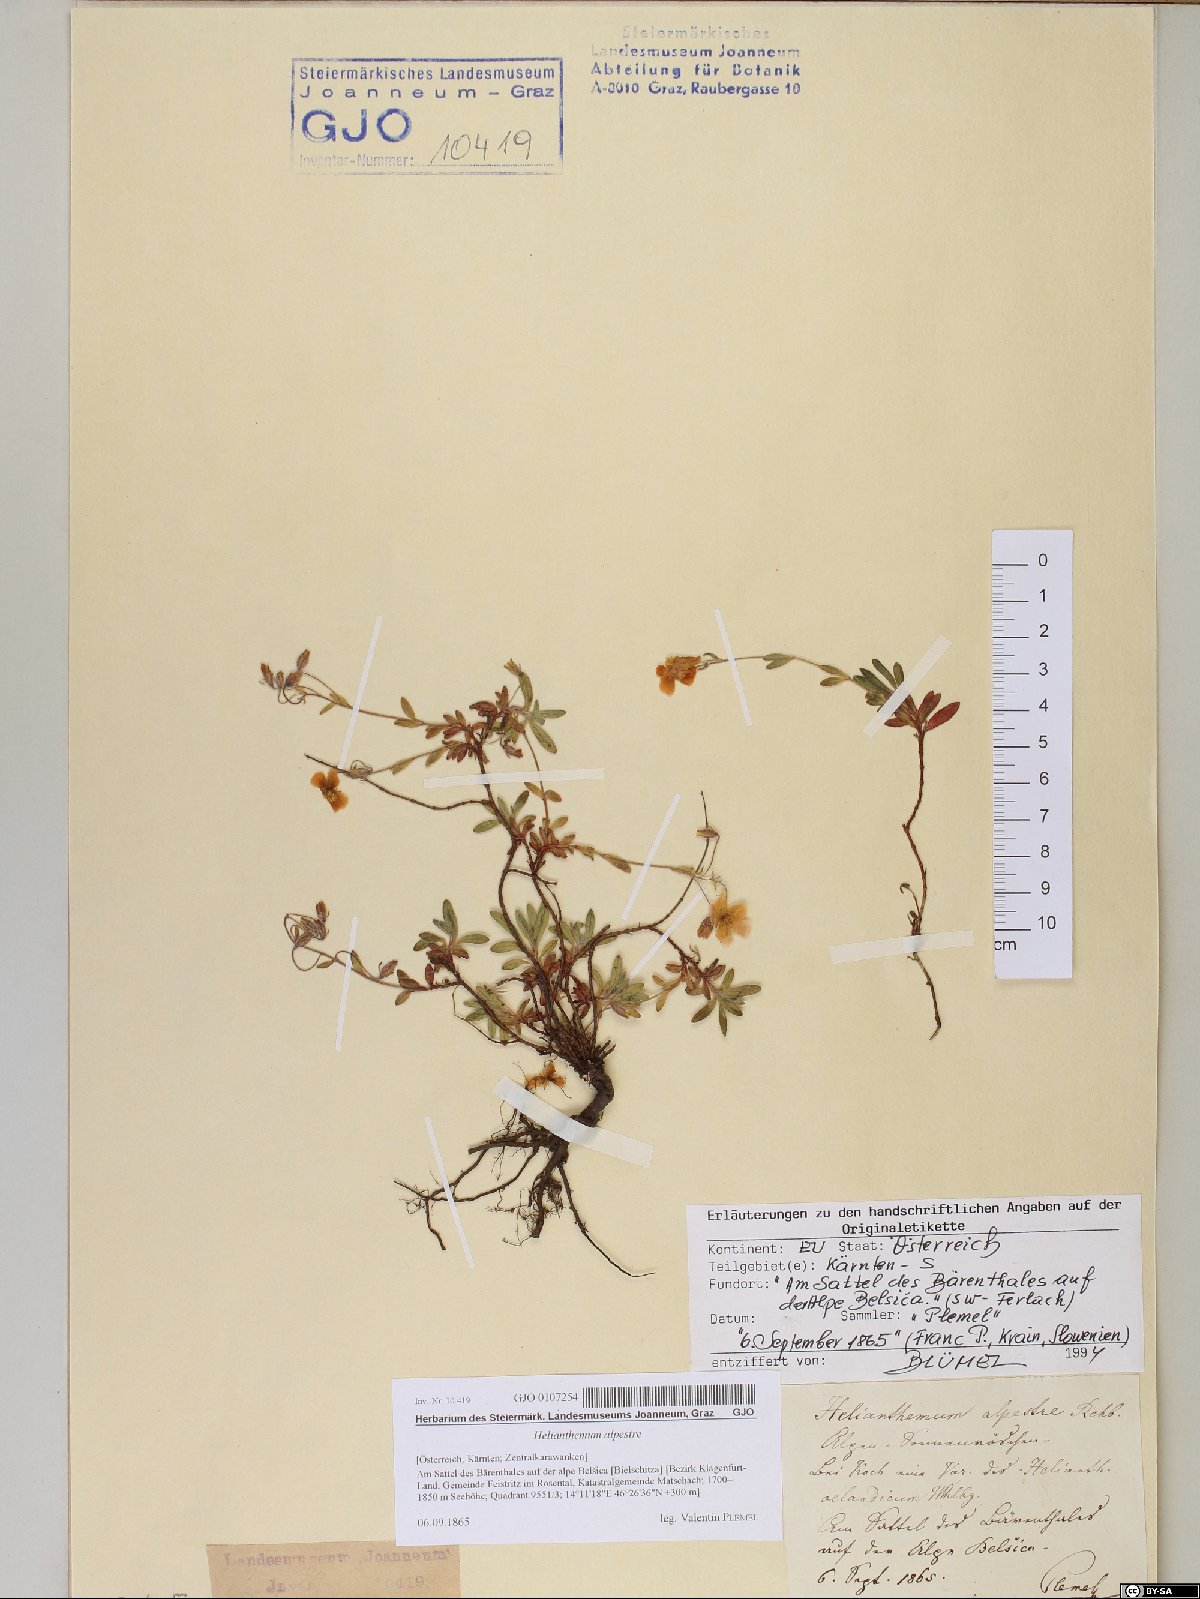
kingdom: Plantae
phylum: Tracheophyta
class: Magnoliopsida
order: Malvales
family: Cistaceae
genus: Helianthemum
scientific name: Helianthemum alpestre
